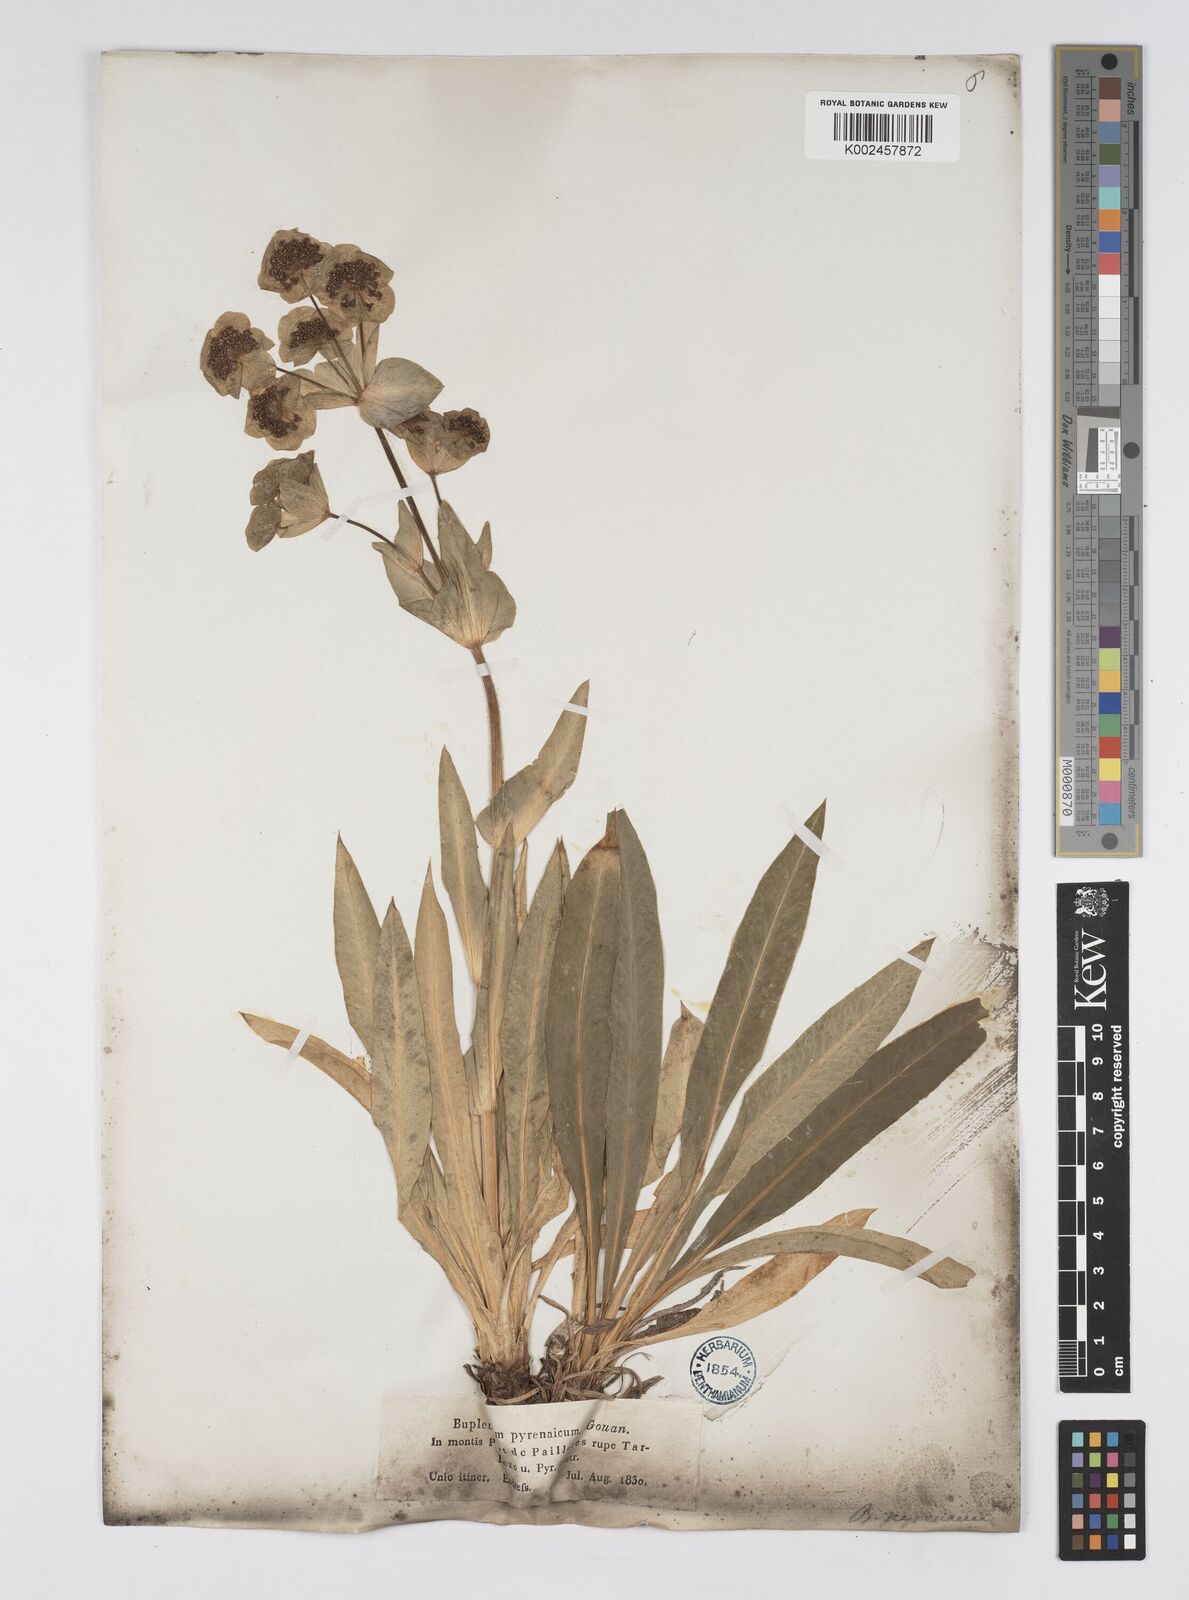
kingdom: Plantae
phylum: Tracheophyta
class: Magnoliopsida
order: Apiales
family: Apiaceae
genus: Bupleurum
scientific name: Bupleurum angulosum
